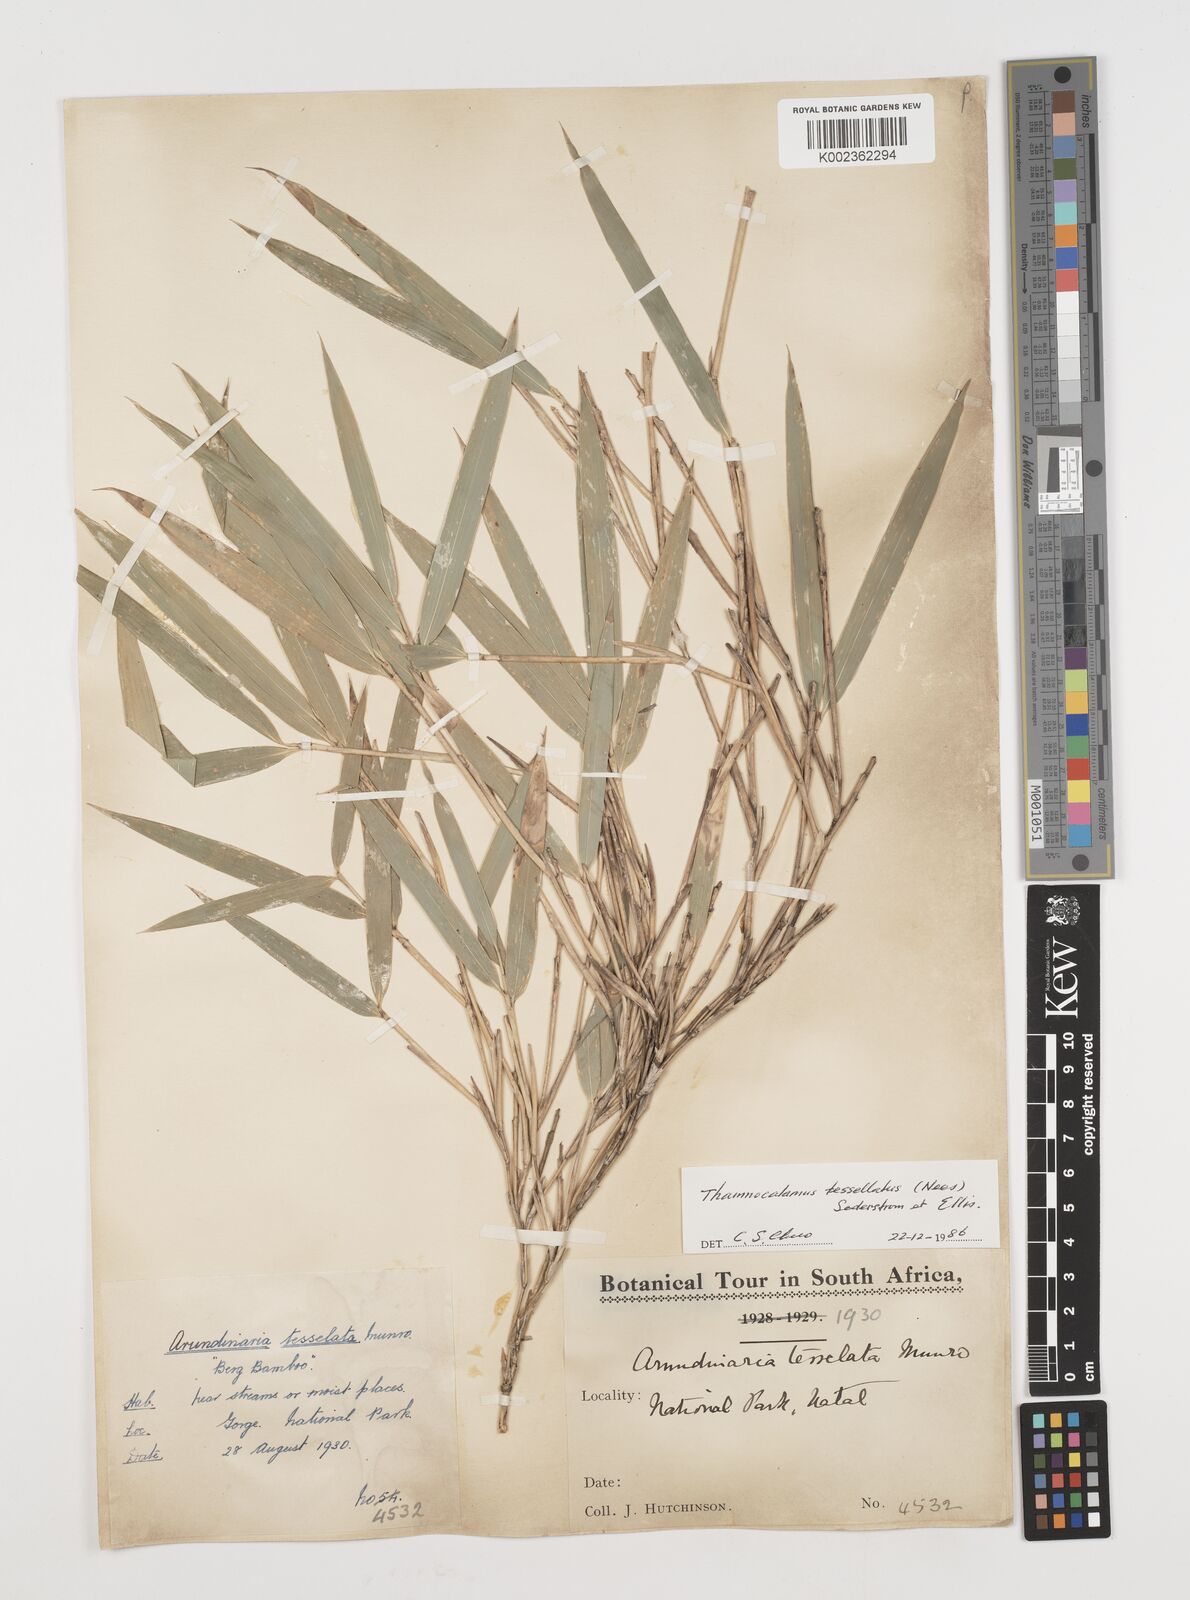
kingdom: Plantae
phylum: Tracheophyta
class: Liliopsida
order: Poales
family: Poaceae
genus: Bergbambos
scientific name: Bergbambos tessellata
